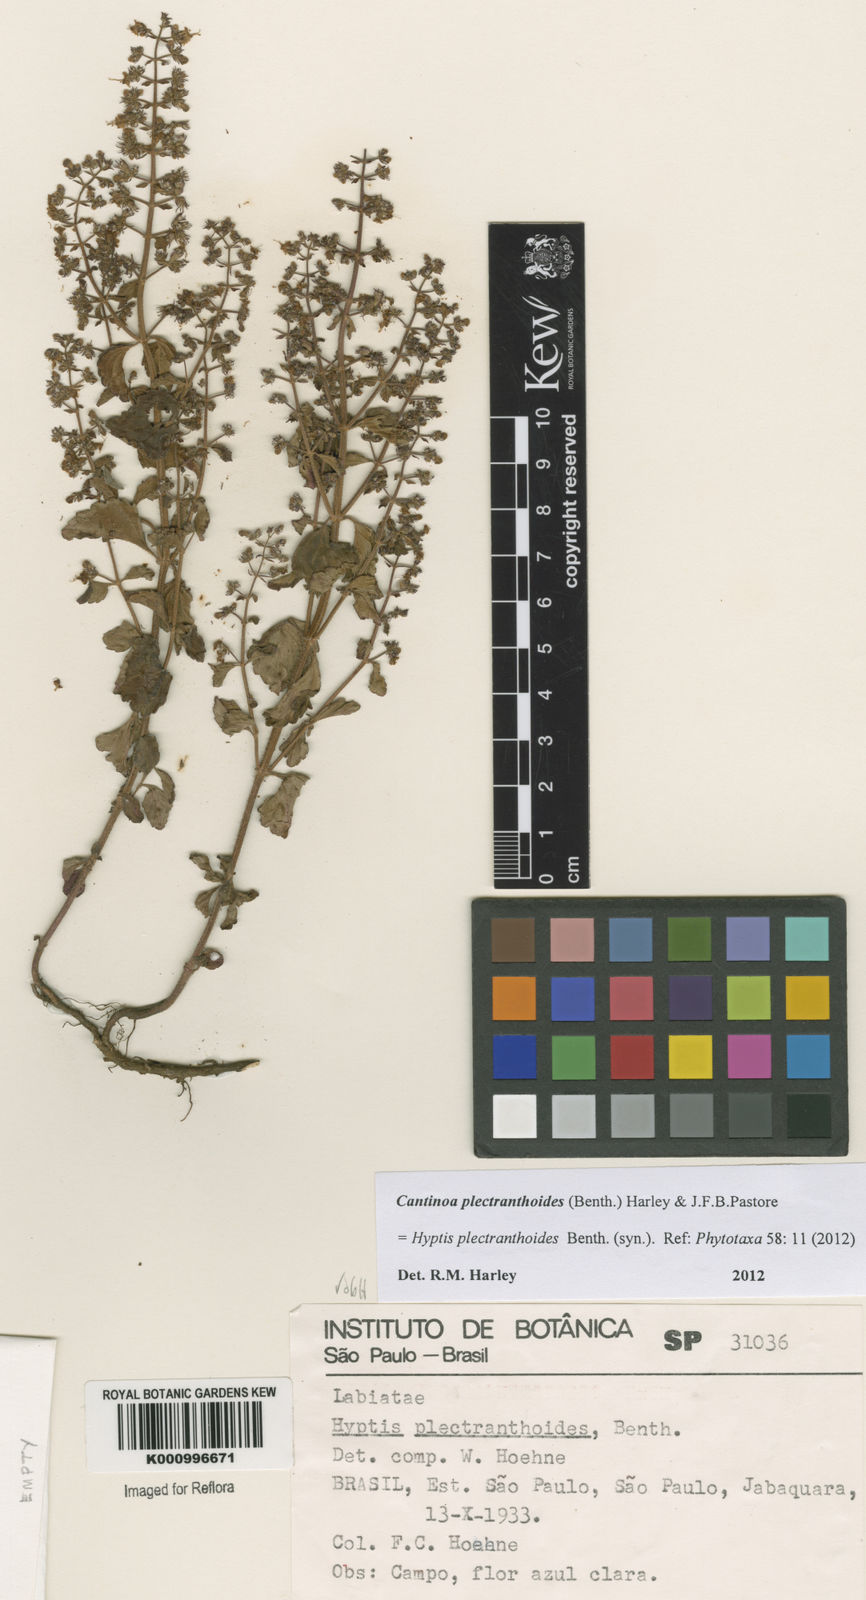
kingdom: Plantae
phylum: Tracheophyta
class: Magnoliopsida
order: Lamiales
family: Lamiaceae
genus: Cantinoa
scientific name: Cantinoa plectranthoides
